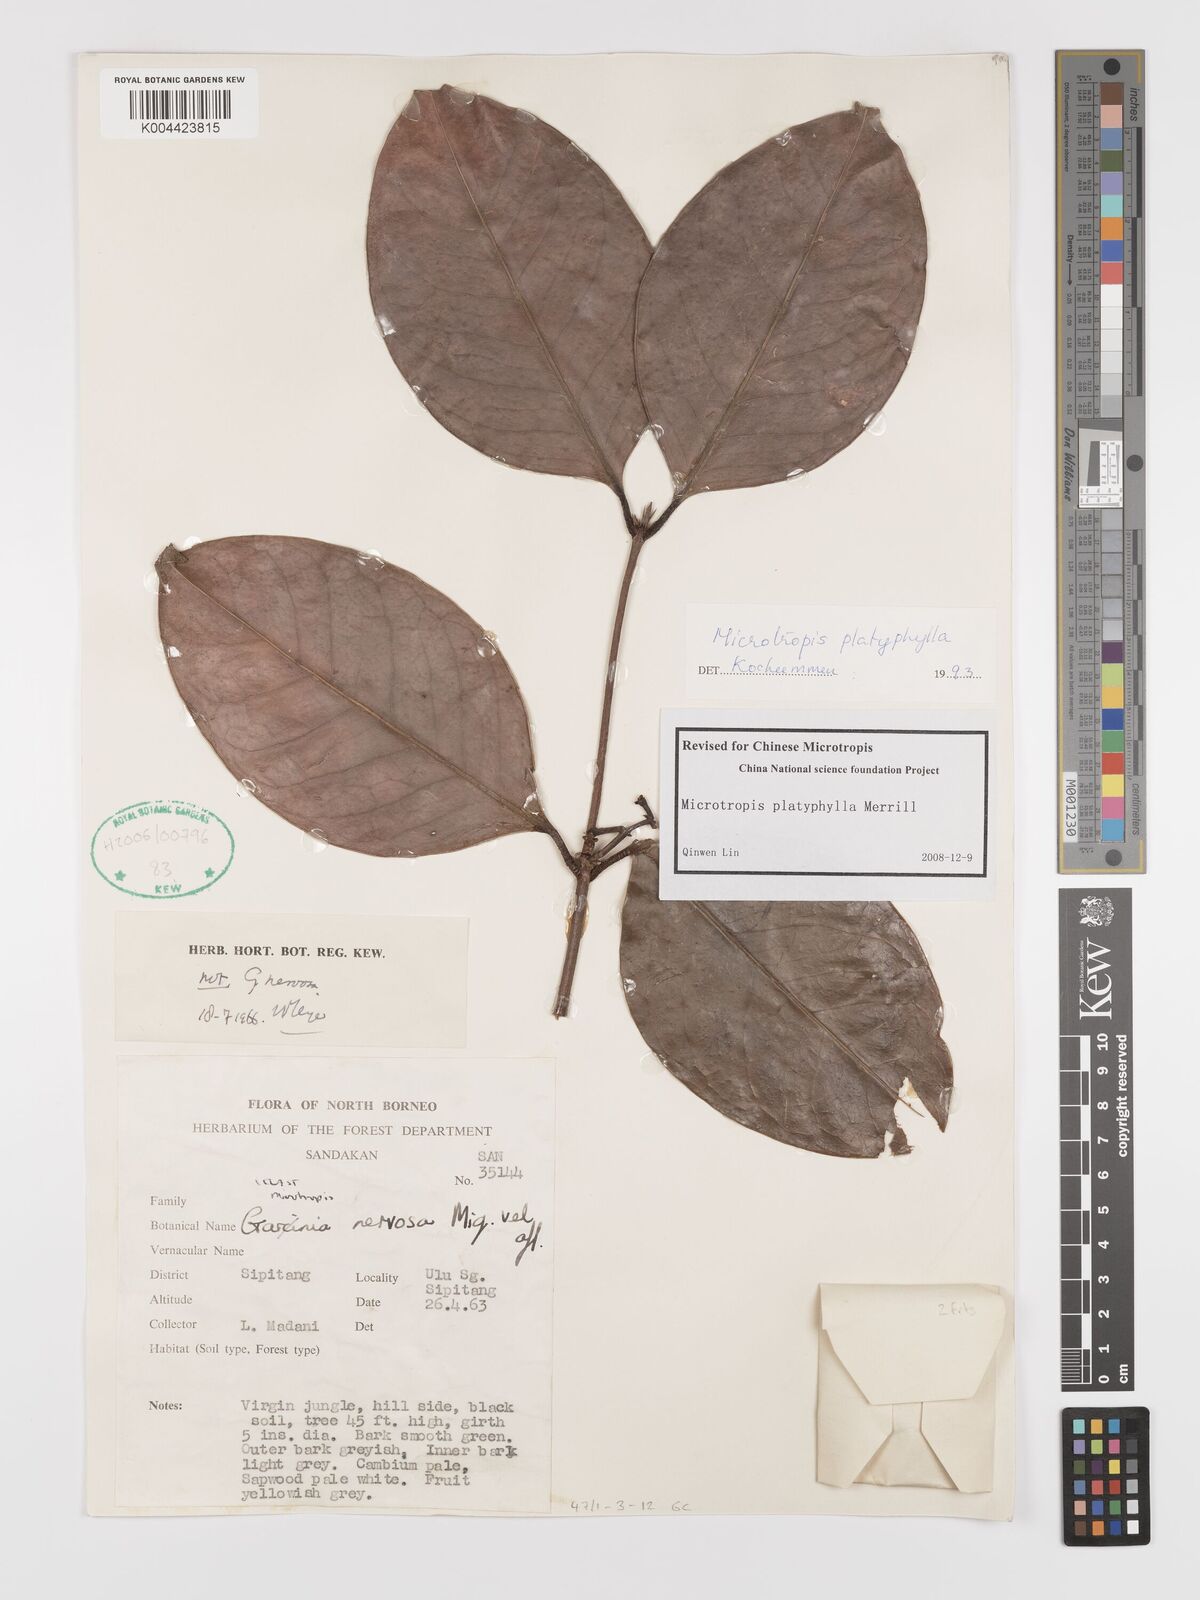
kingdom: Plantae
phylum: Tracheophyta
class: Magnoliopsida
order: Celastrales
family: Celastraceae
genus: Microtropis
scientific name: Microtropis platyphylla
